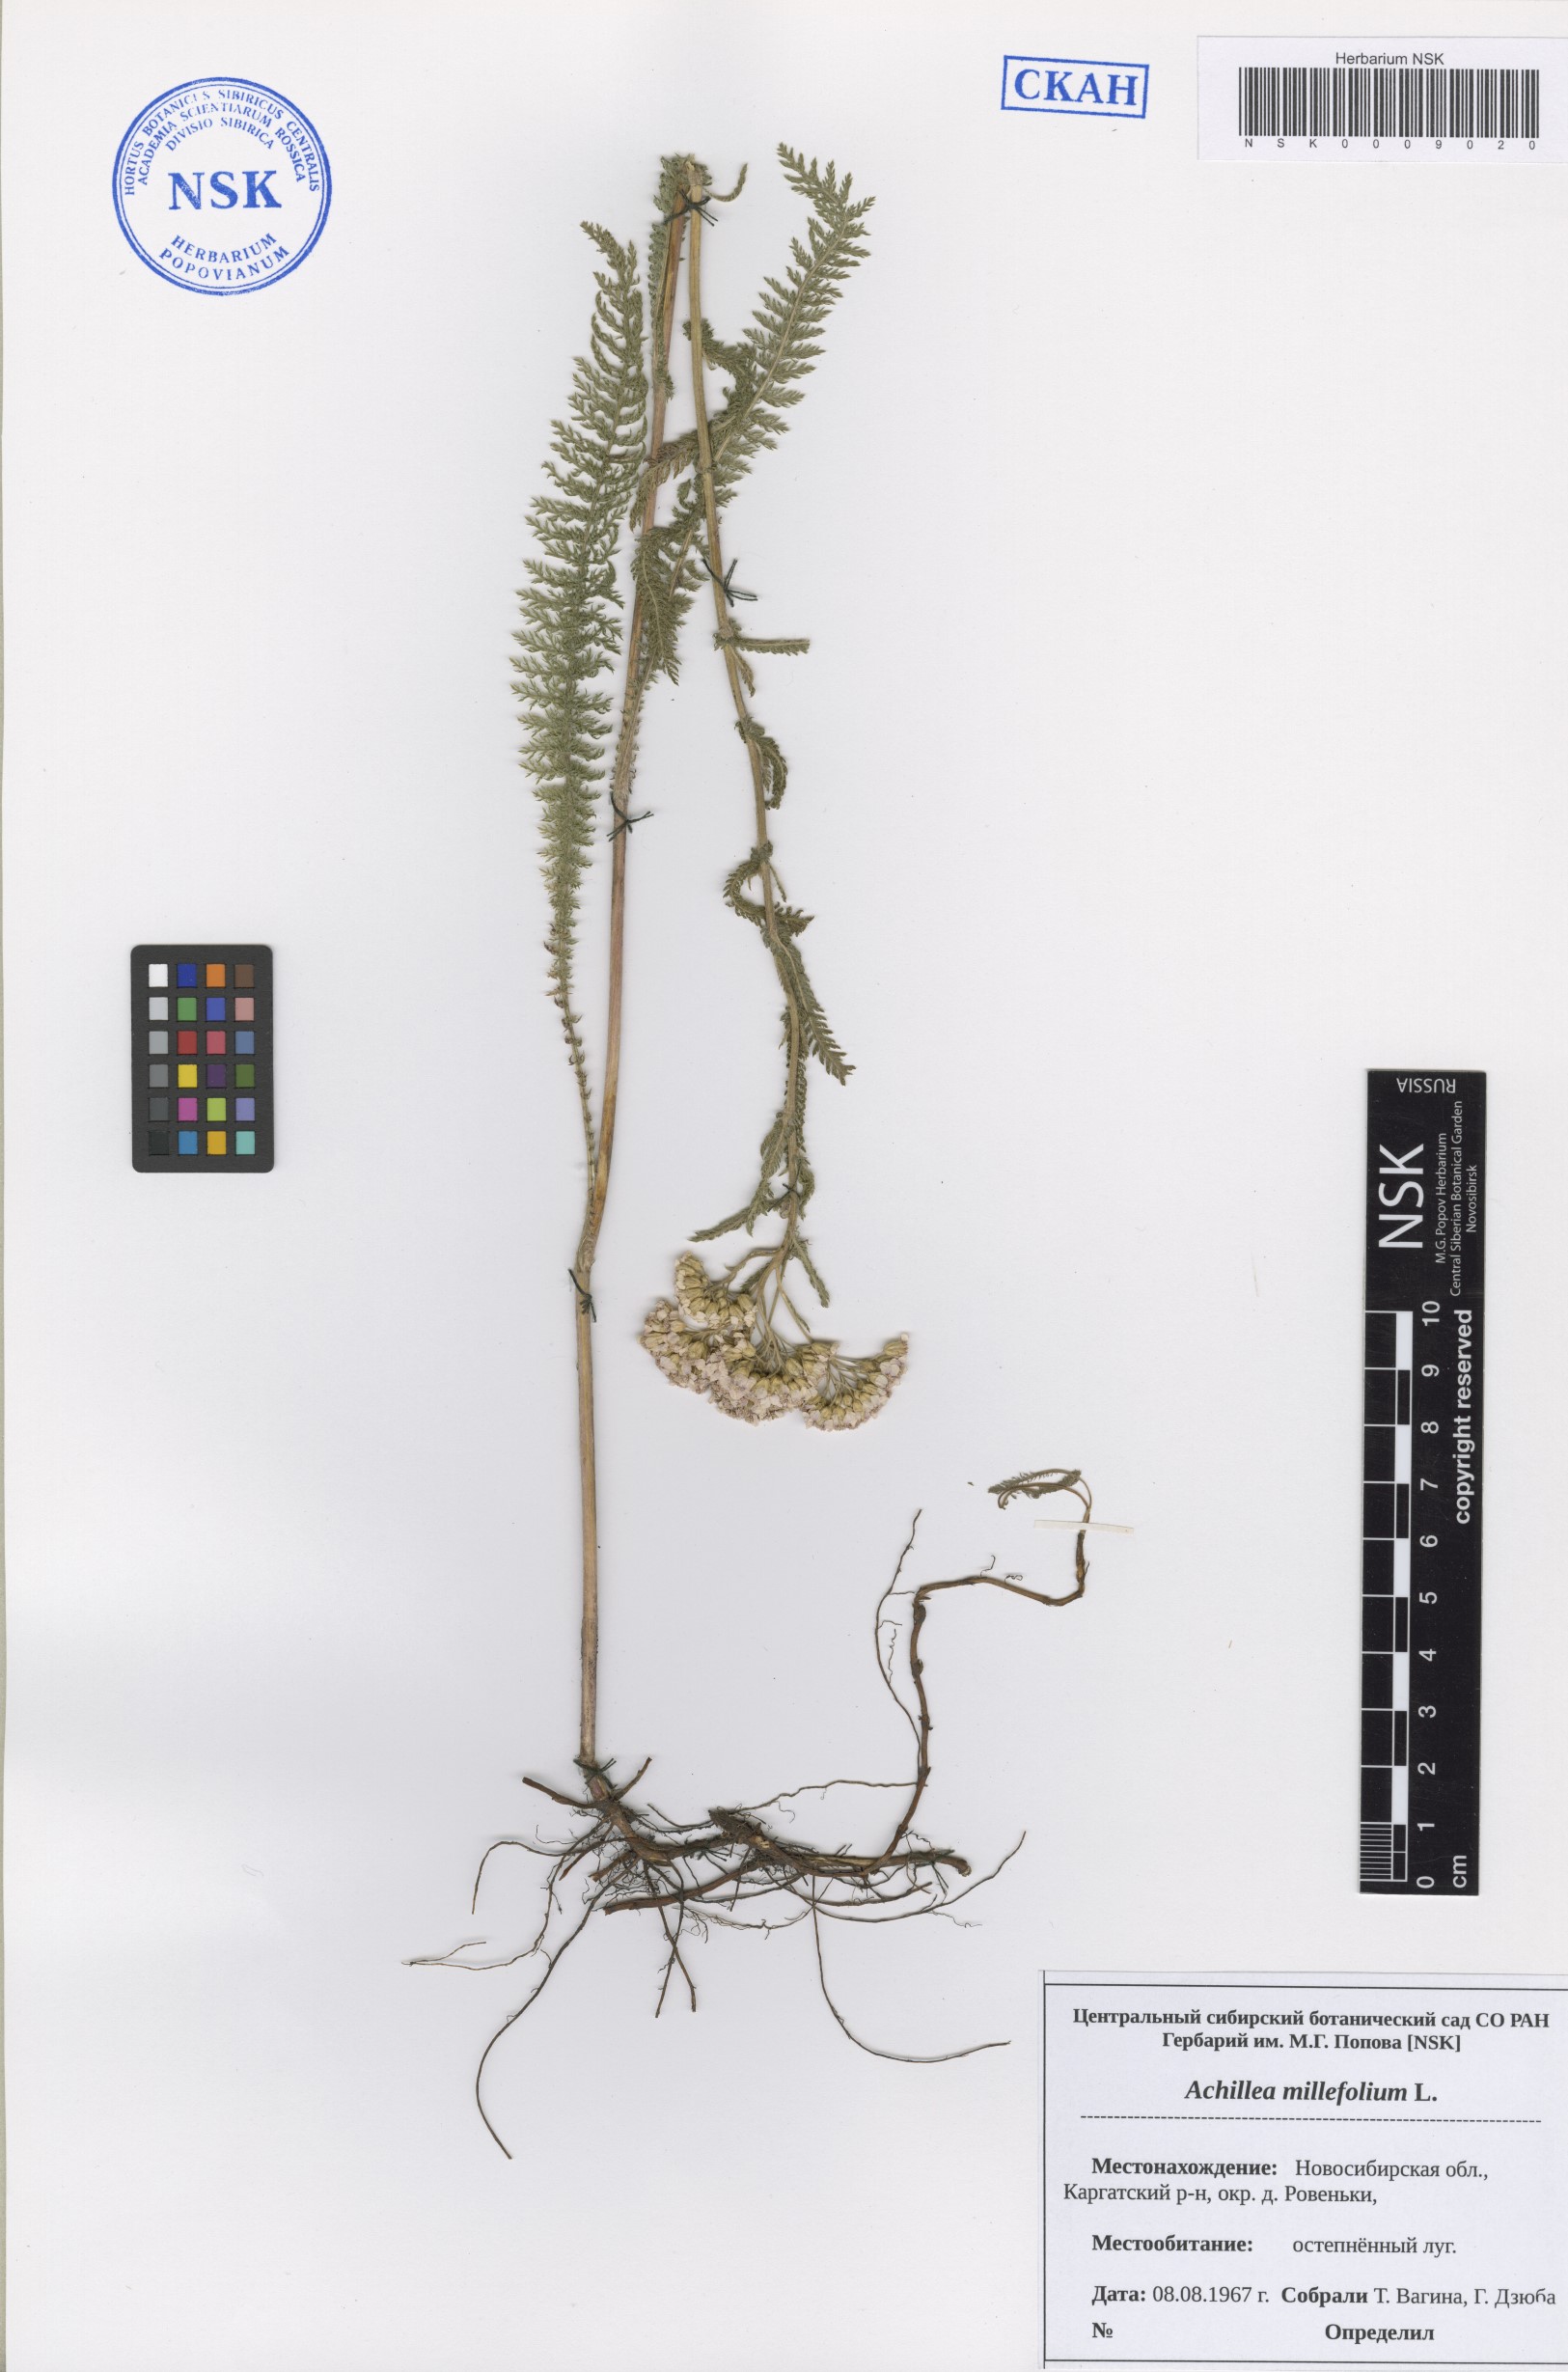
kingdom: Plantae
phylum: Tracheophyta
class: Magnoliopsida
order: Asterales
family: Asteraceae
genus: Achillea
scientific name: Achillea millefolium
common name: Yarrow
